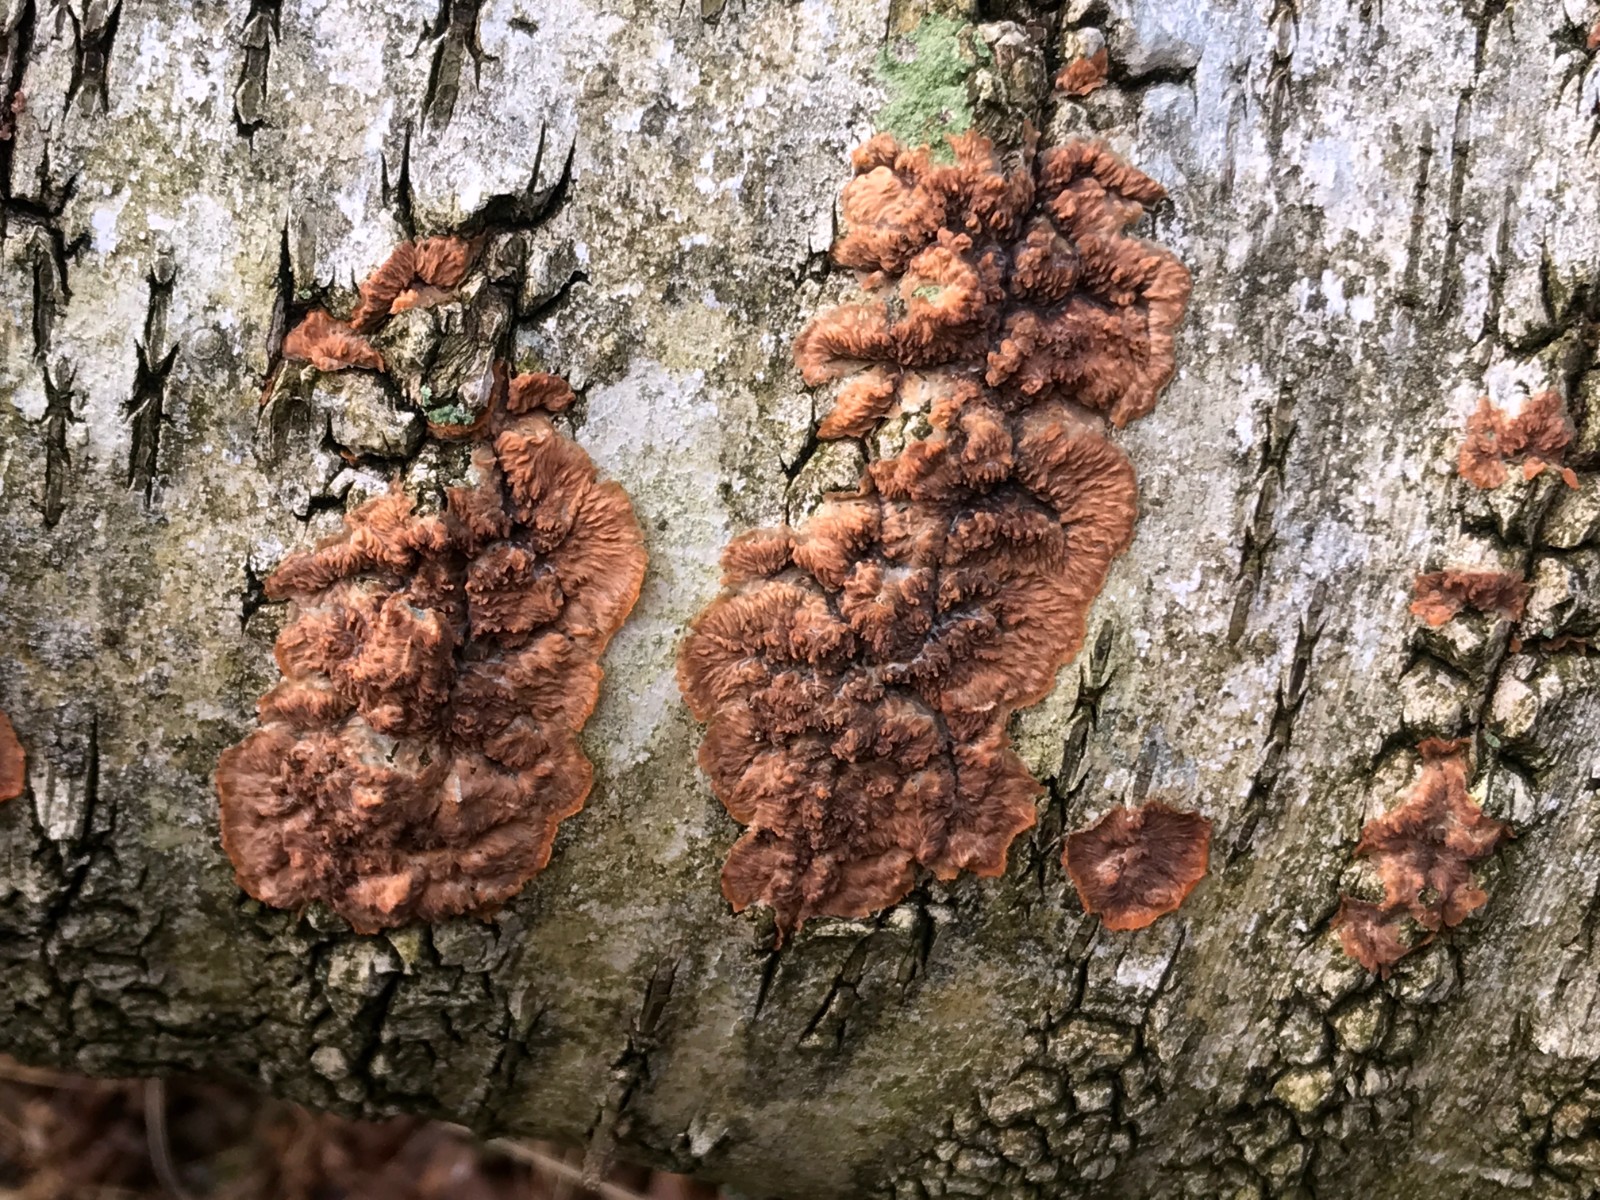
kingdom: Fungi
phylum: Basidiomycota
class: Agaricomycetes
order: Polyporales
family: Meruliaceae
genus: Phlebia
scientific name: Phlebia radiata
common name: stråle-åresvamp
